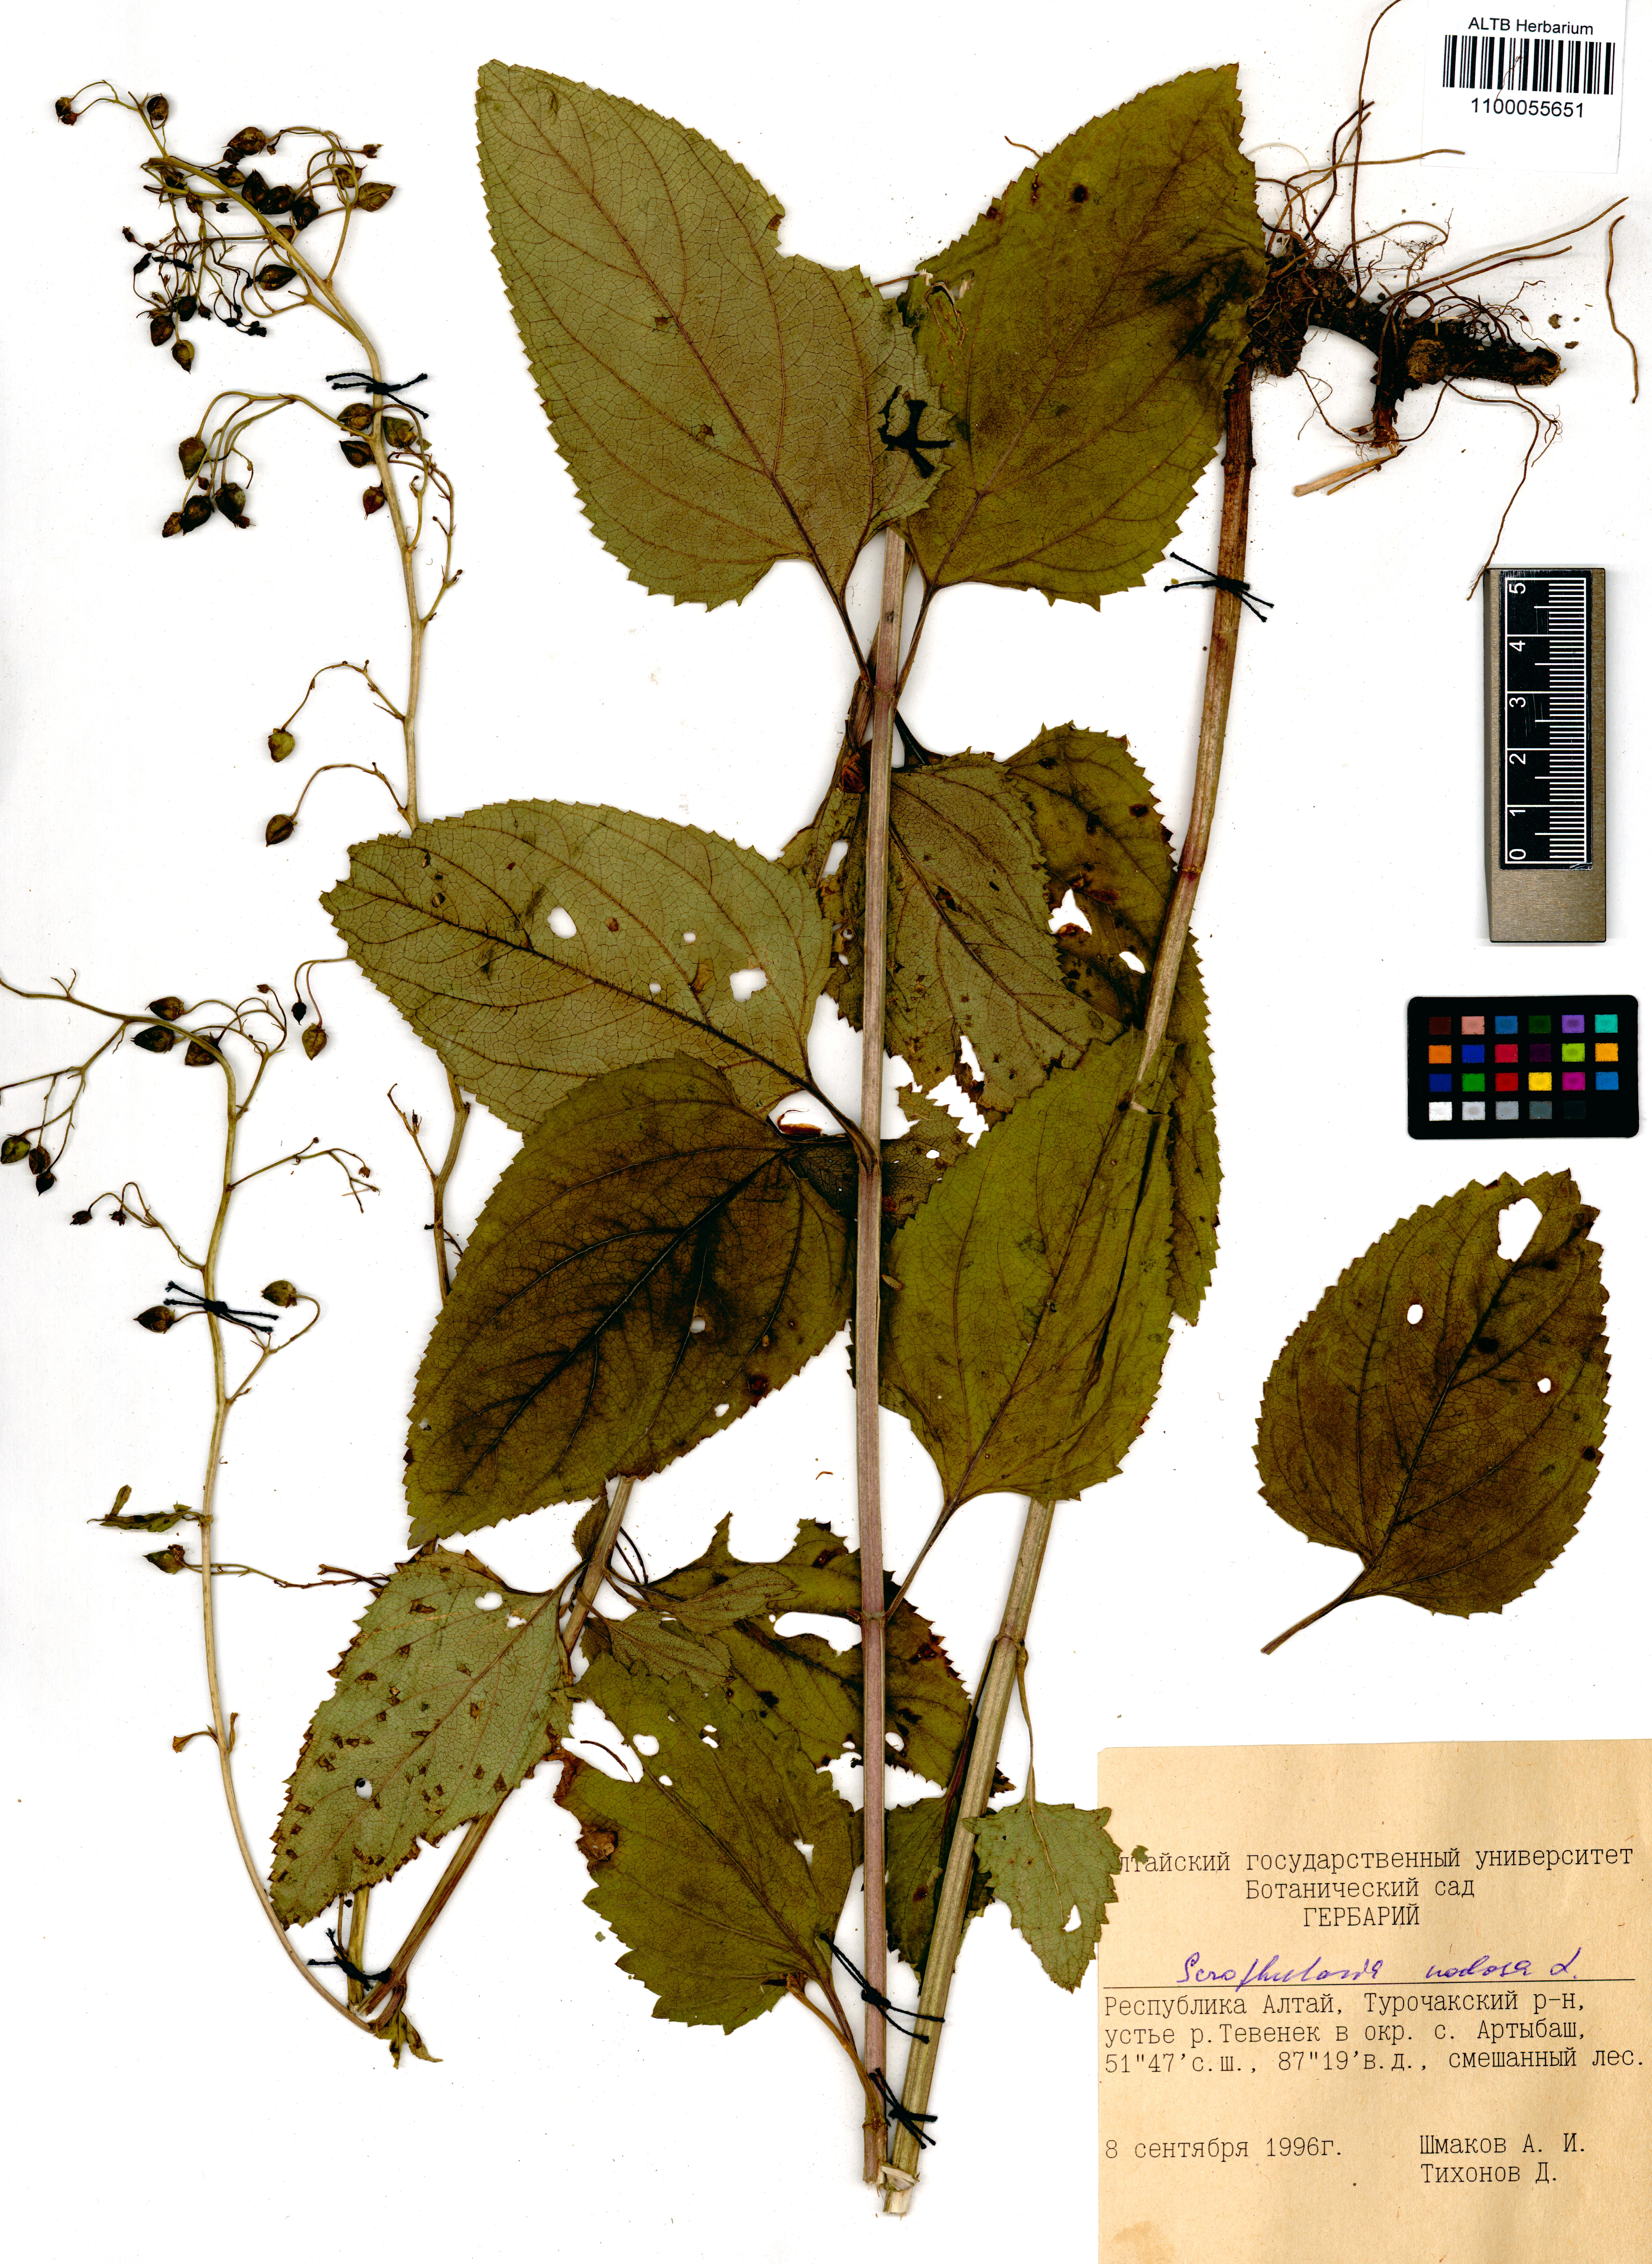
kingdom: Plantae
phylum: Tracheophyta
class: Magnoliopsida
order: Lamiales
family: Scrophulariaceae
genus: Scrophularia
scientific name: Scrophularia nodosa
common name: Common figwort
